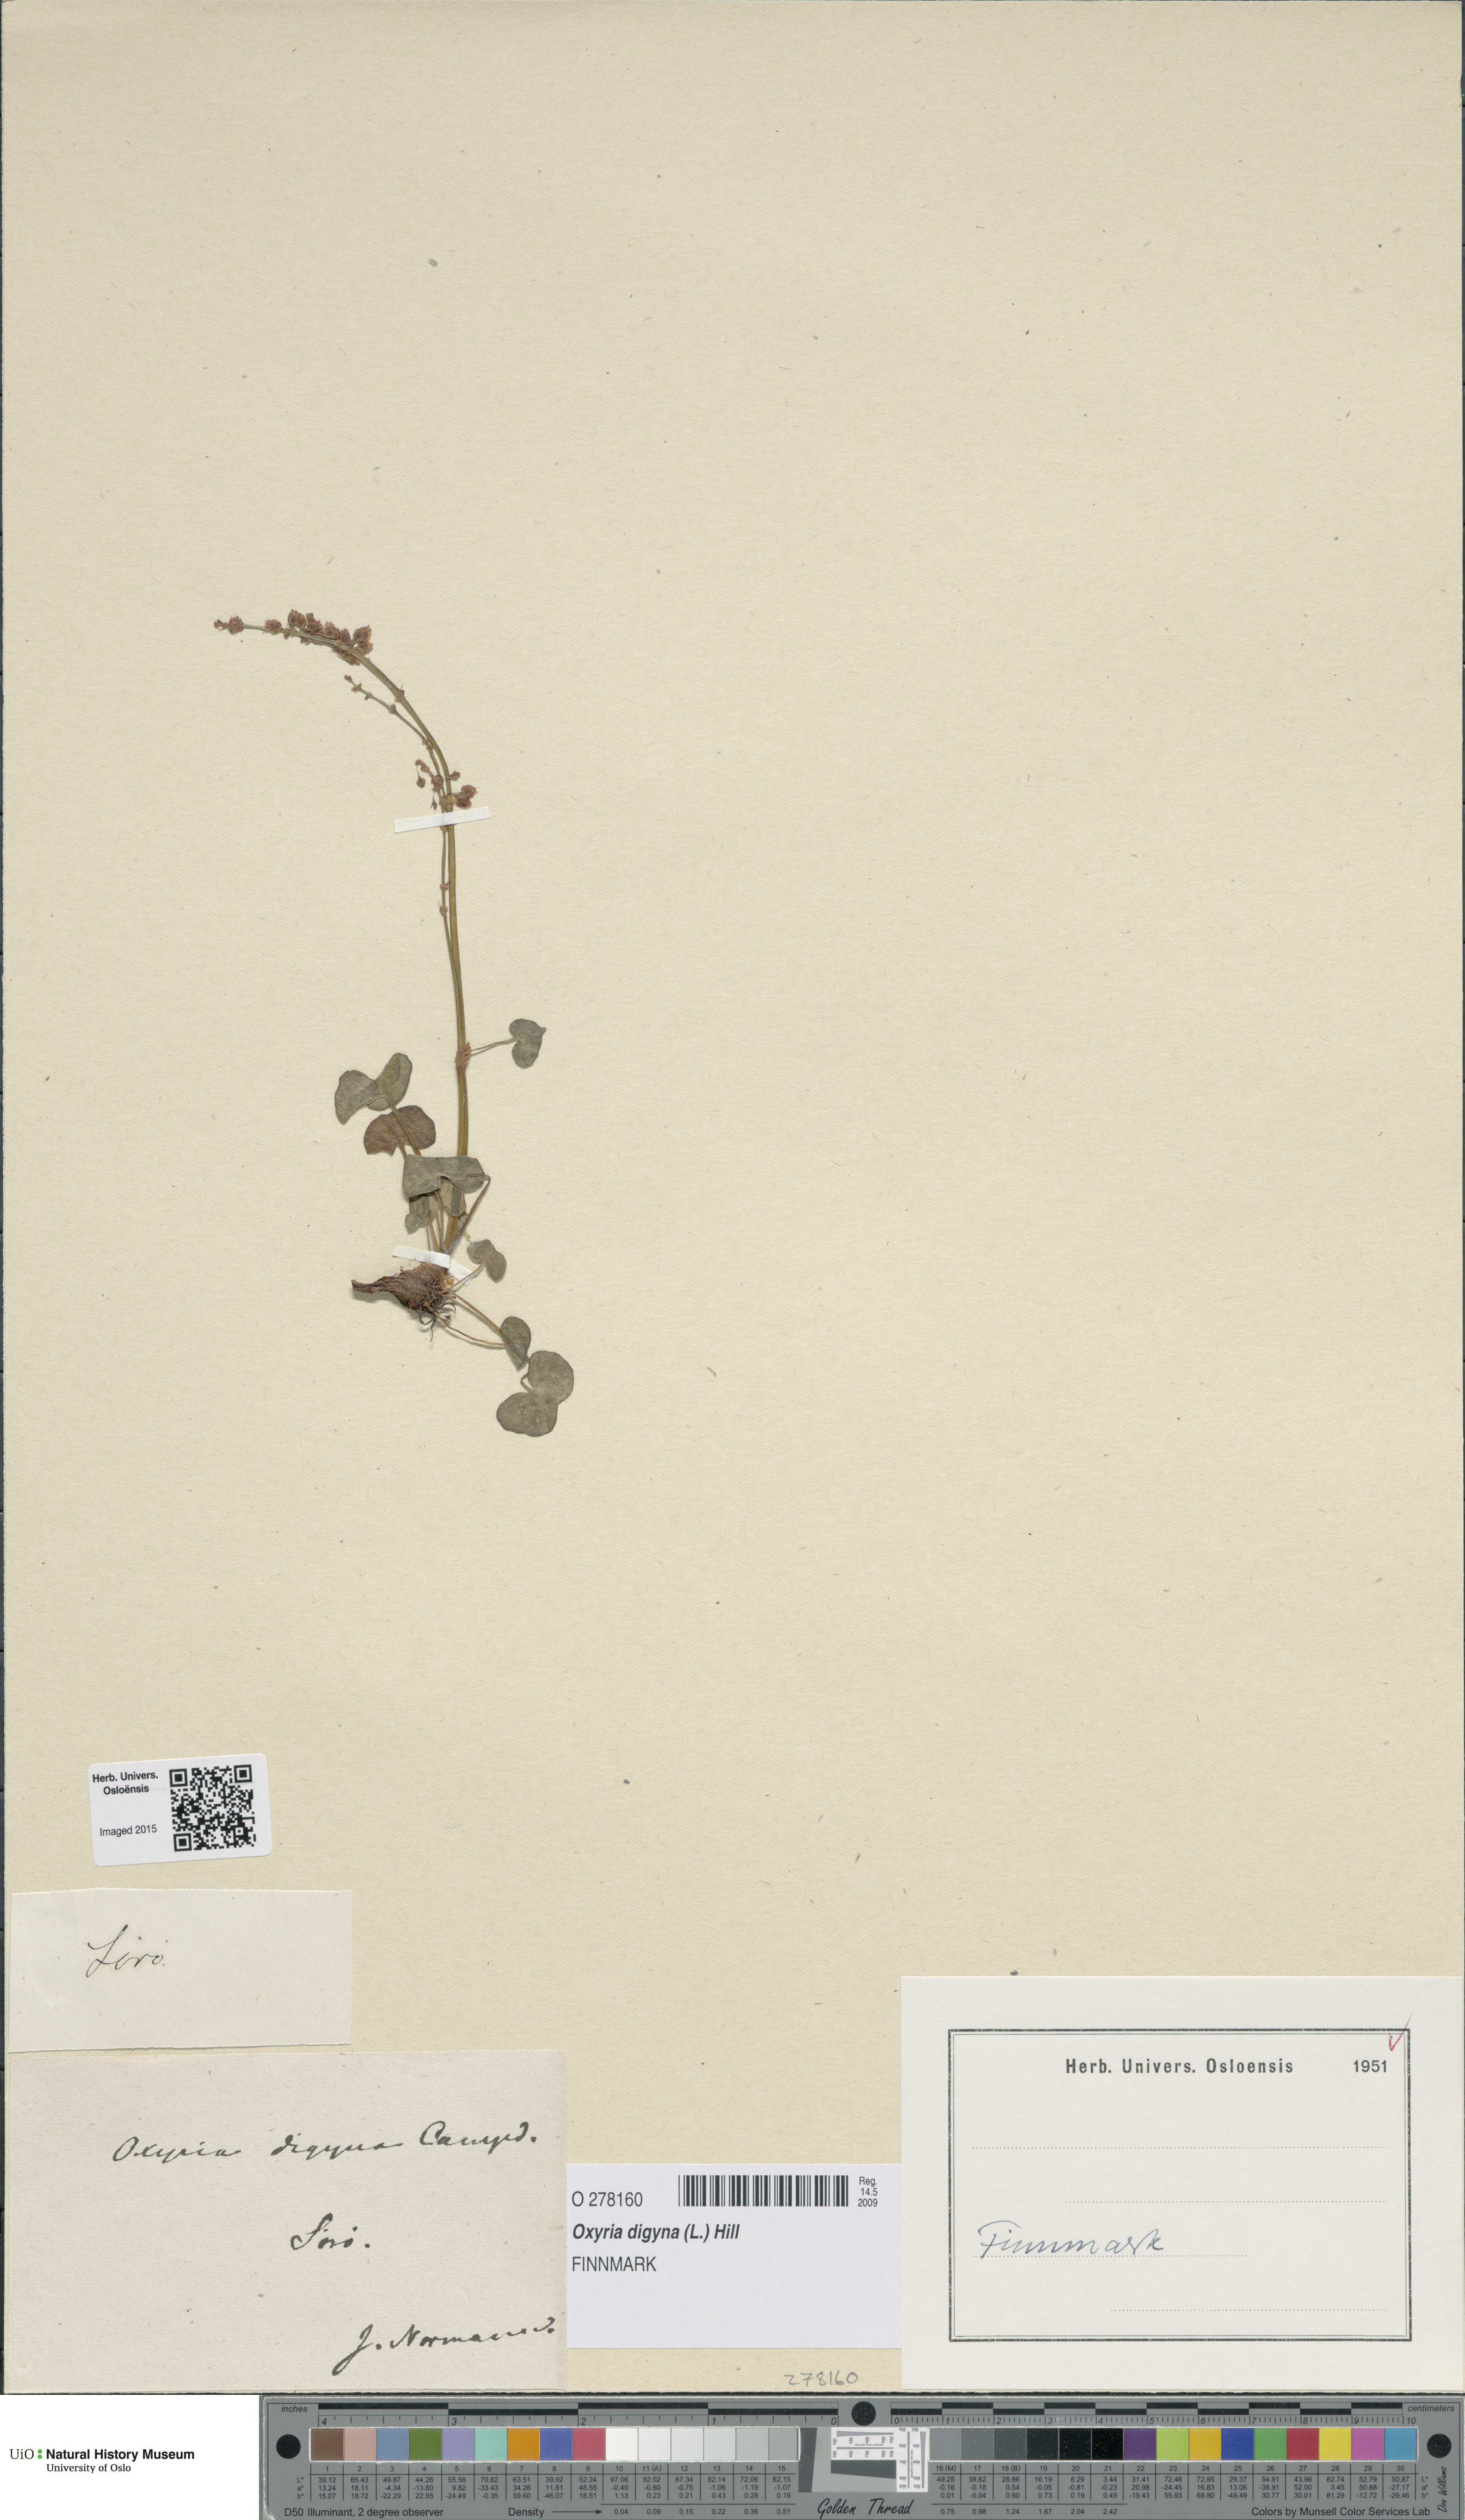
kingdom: Plantae
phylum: Tracheophyta
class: Magnoliopsida
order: Caryophyllales
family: Polygonaceae
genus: Oxyria
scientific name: Oxyria digyna
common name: Alpine mountain-sorrel
